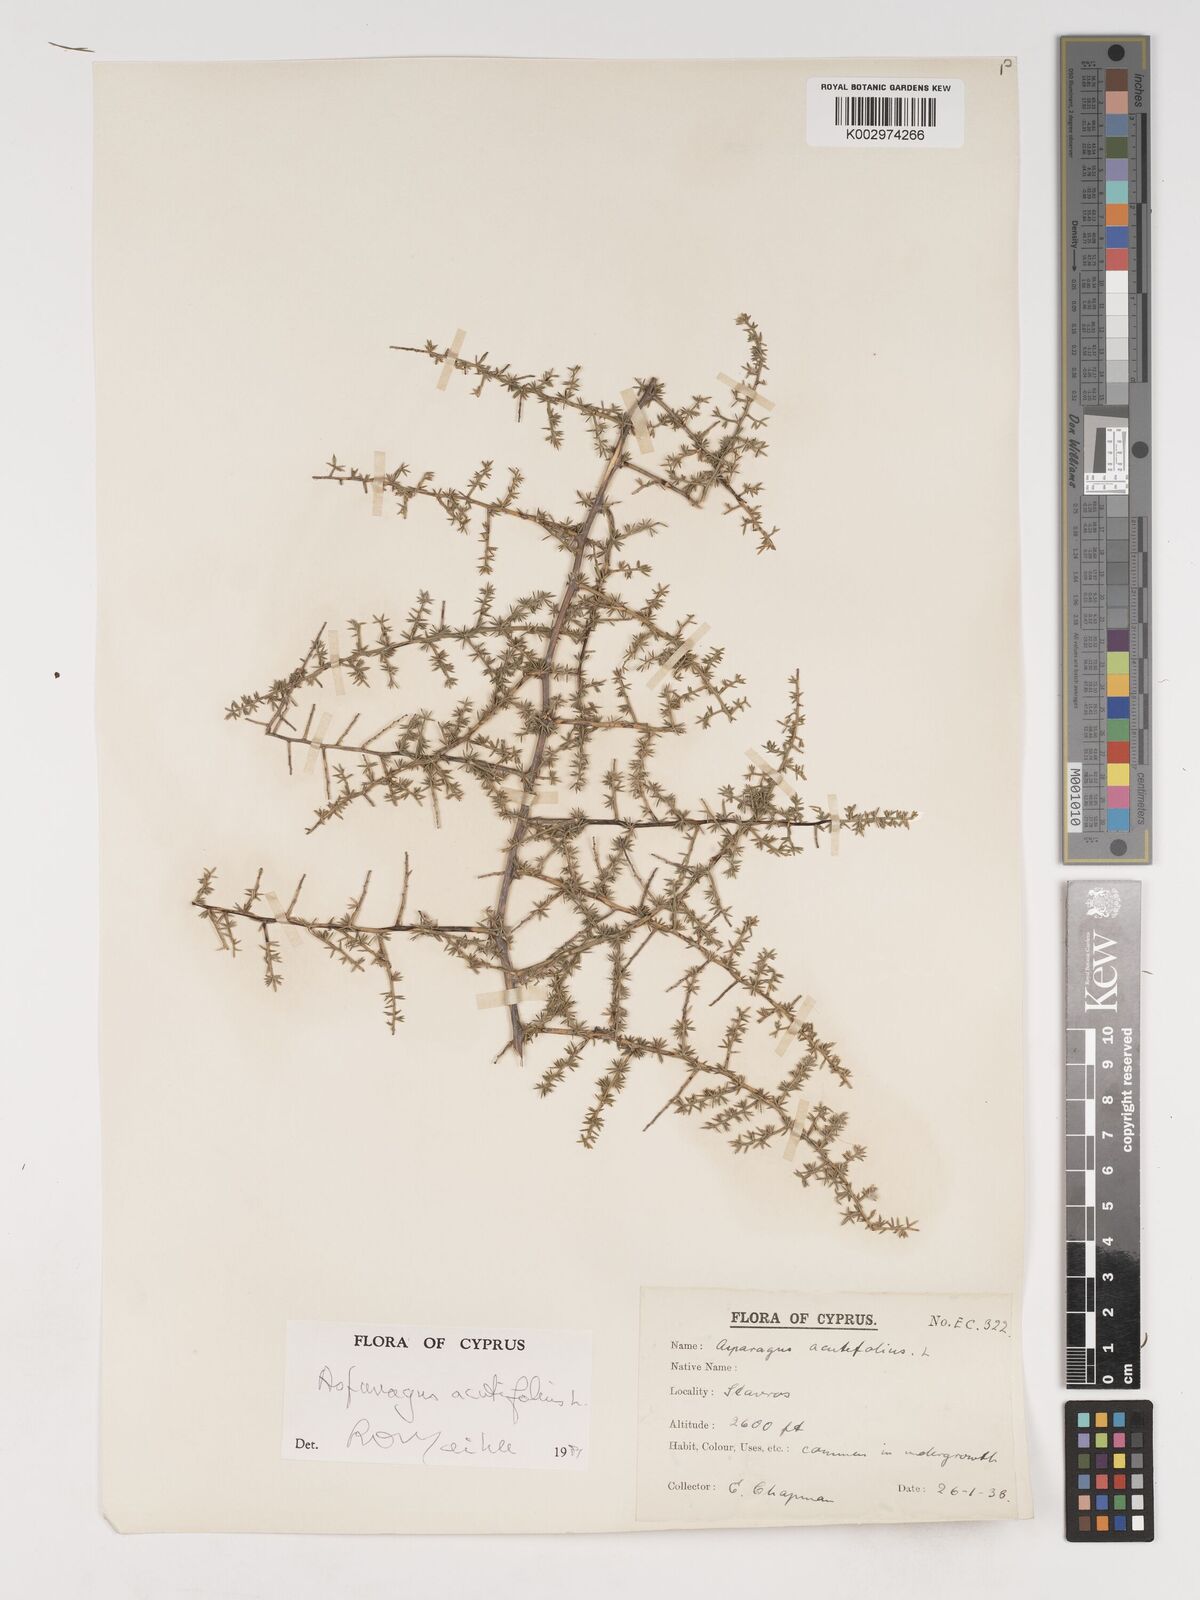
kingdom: Plantae
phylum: Tracheophyta
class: Liliopsida
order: Asparagales
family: Asparagaceae
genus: Asparagus
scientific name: Asparagus acutifolius
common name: Wild asparagus
